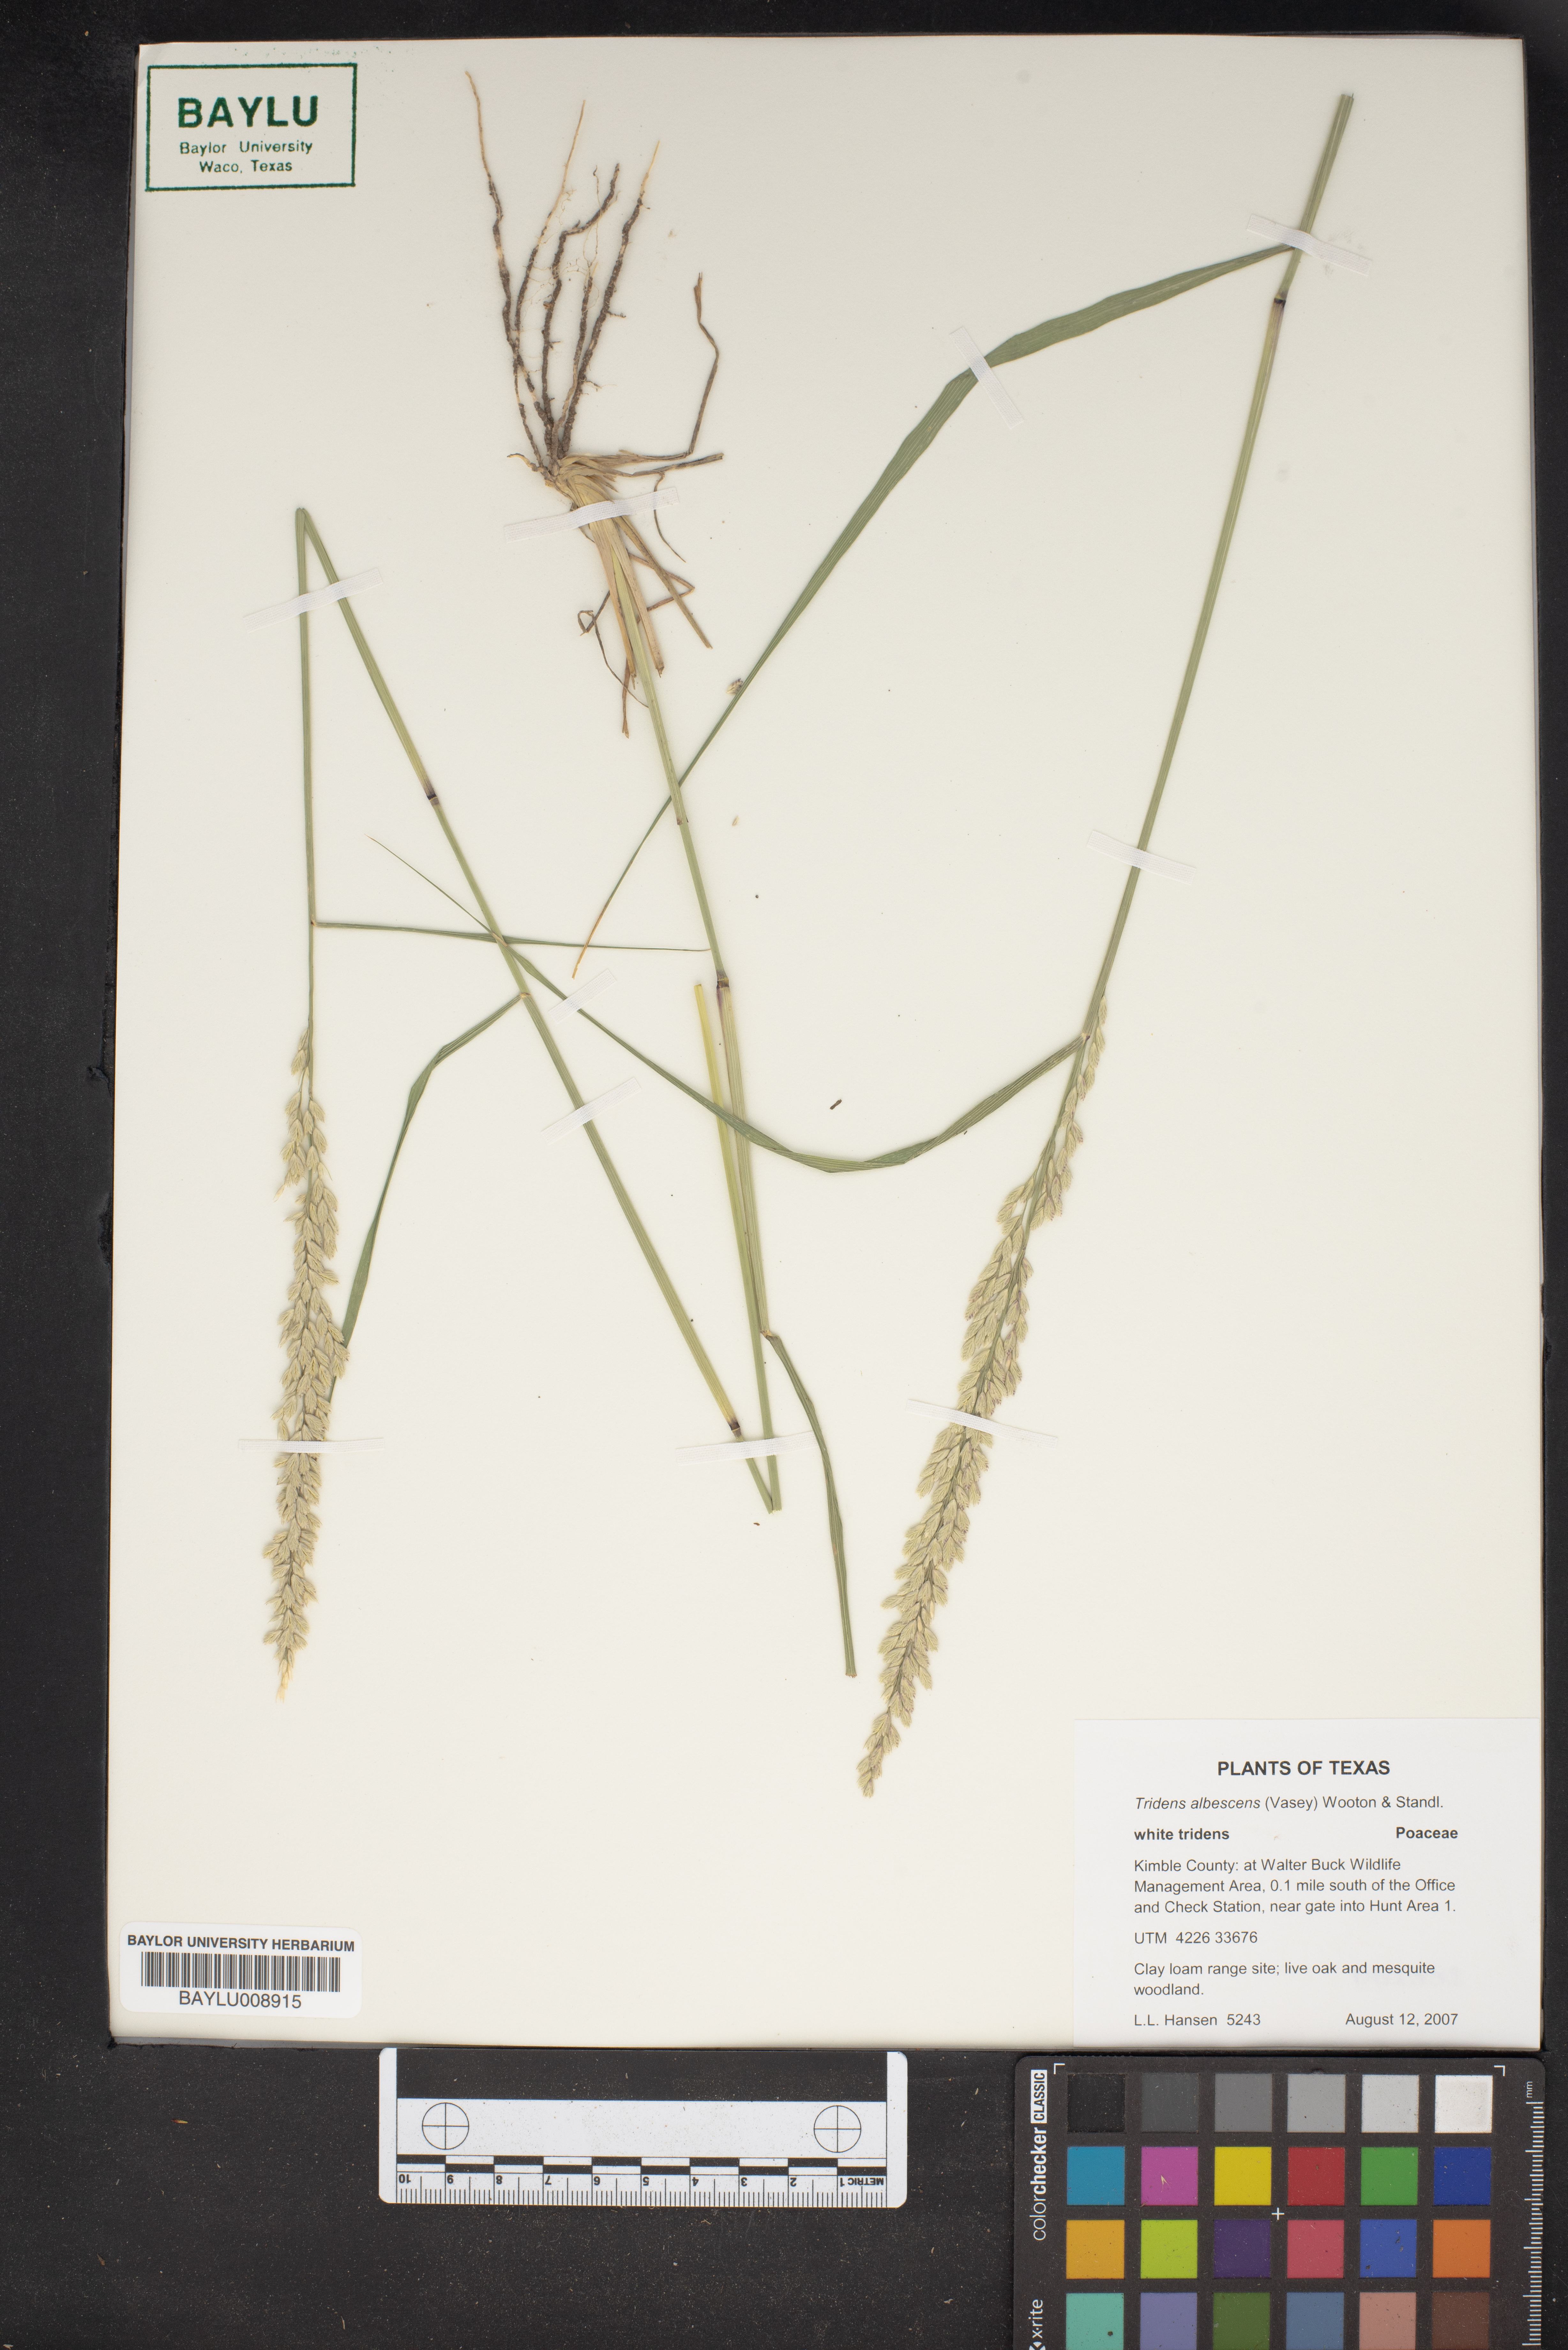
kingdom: Plantae
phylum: Tracheophyta
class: Liliopsida
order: Poales
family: Poaceae
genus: Tridens
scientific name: Tridens albescens
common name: White tridens
